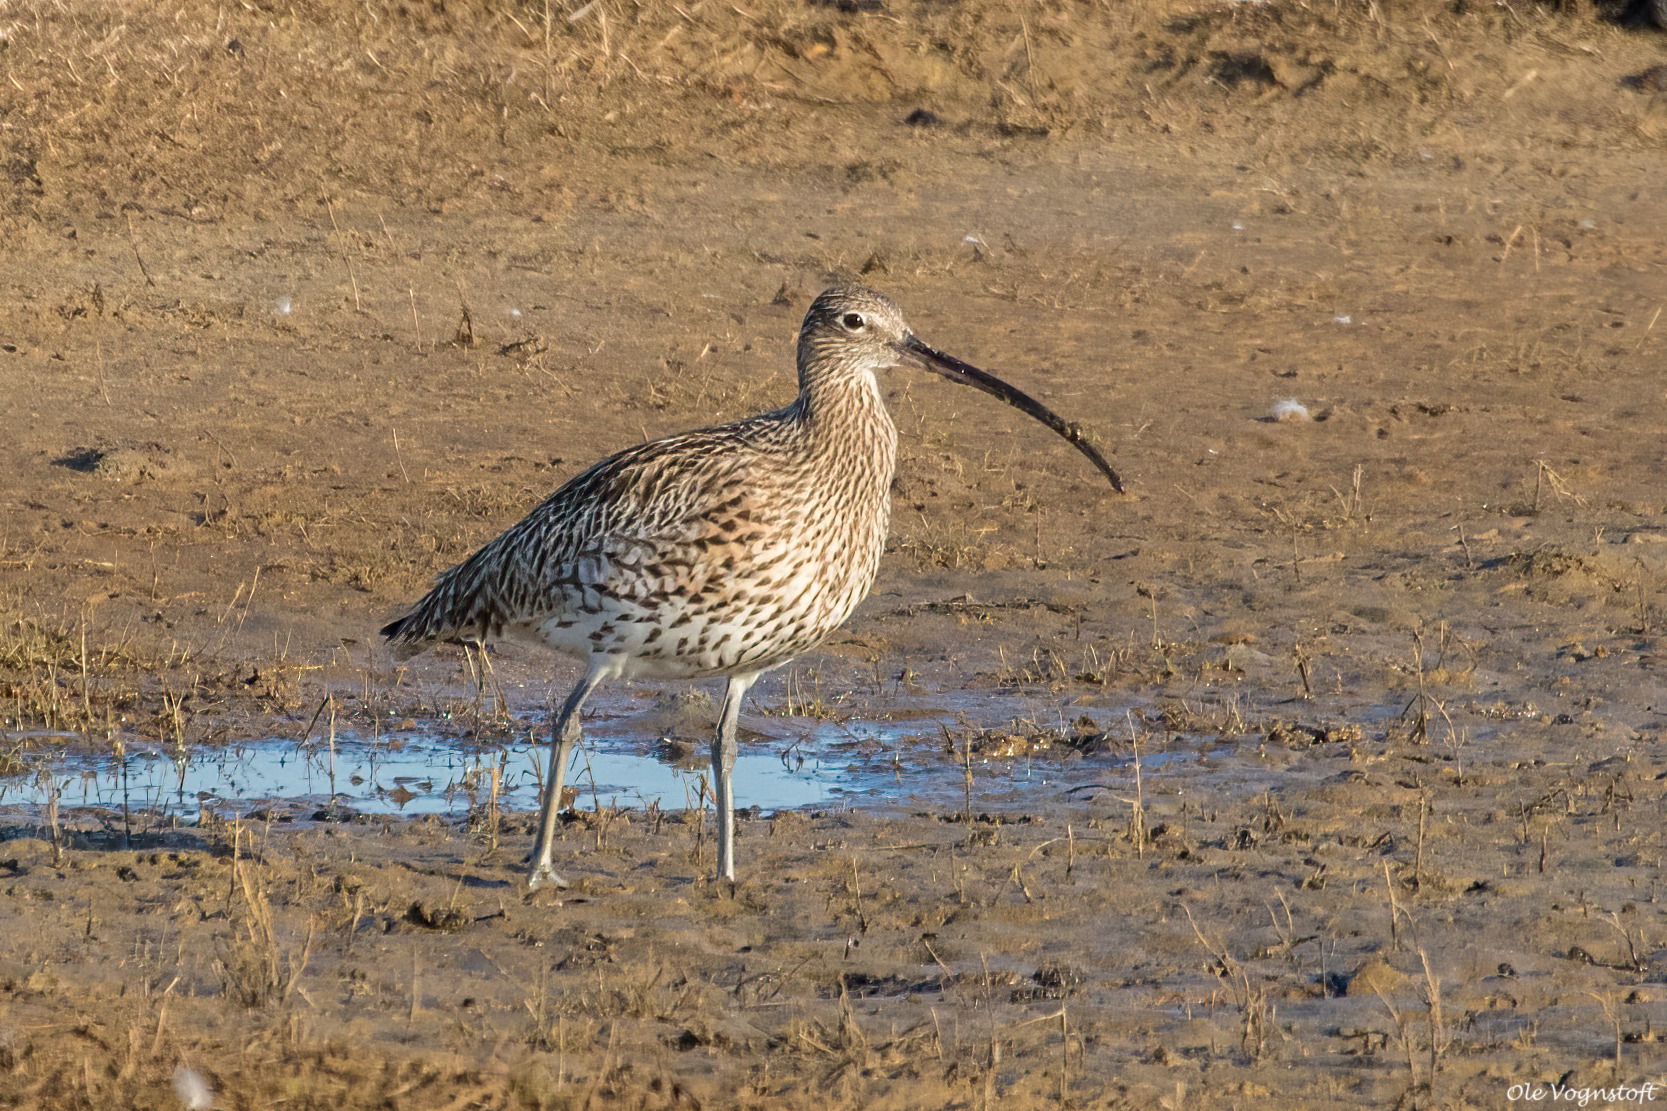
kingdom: Animalia
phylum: Chordata
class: Aves
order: Charadriiformes
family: Scolopacidae
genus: Numenius
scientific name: Numenius arquata
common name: Storspove
